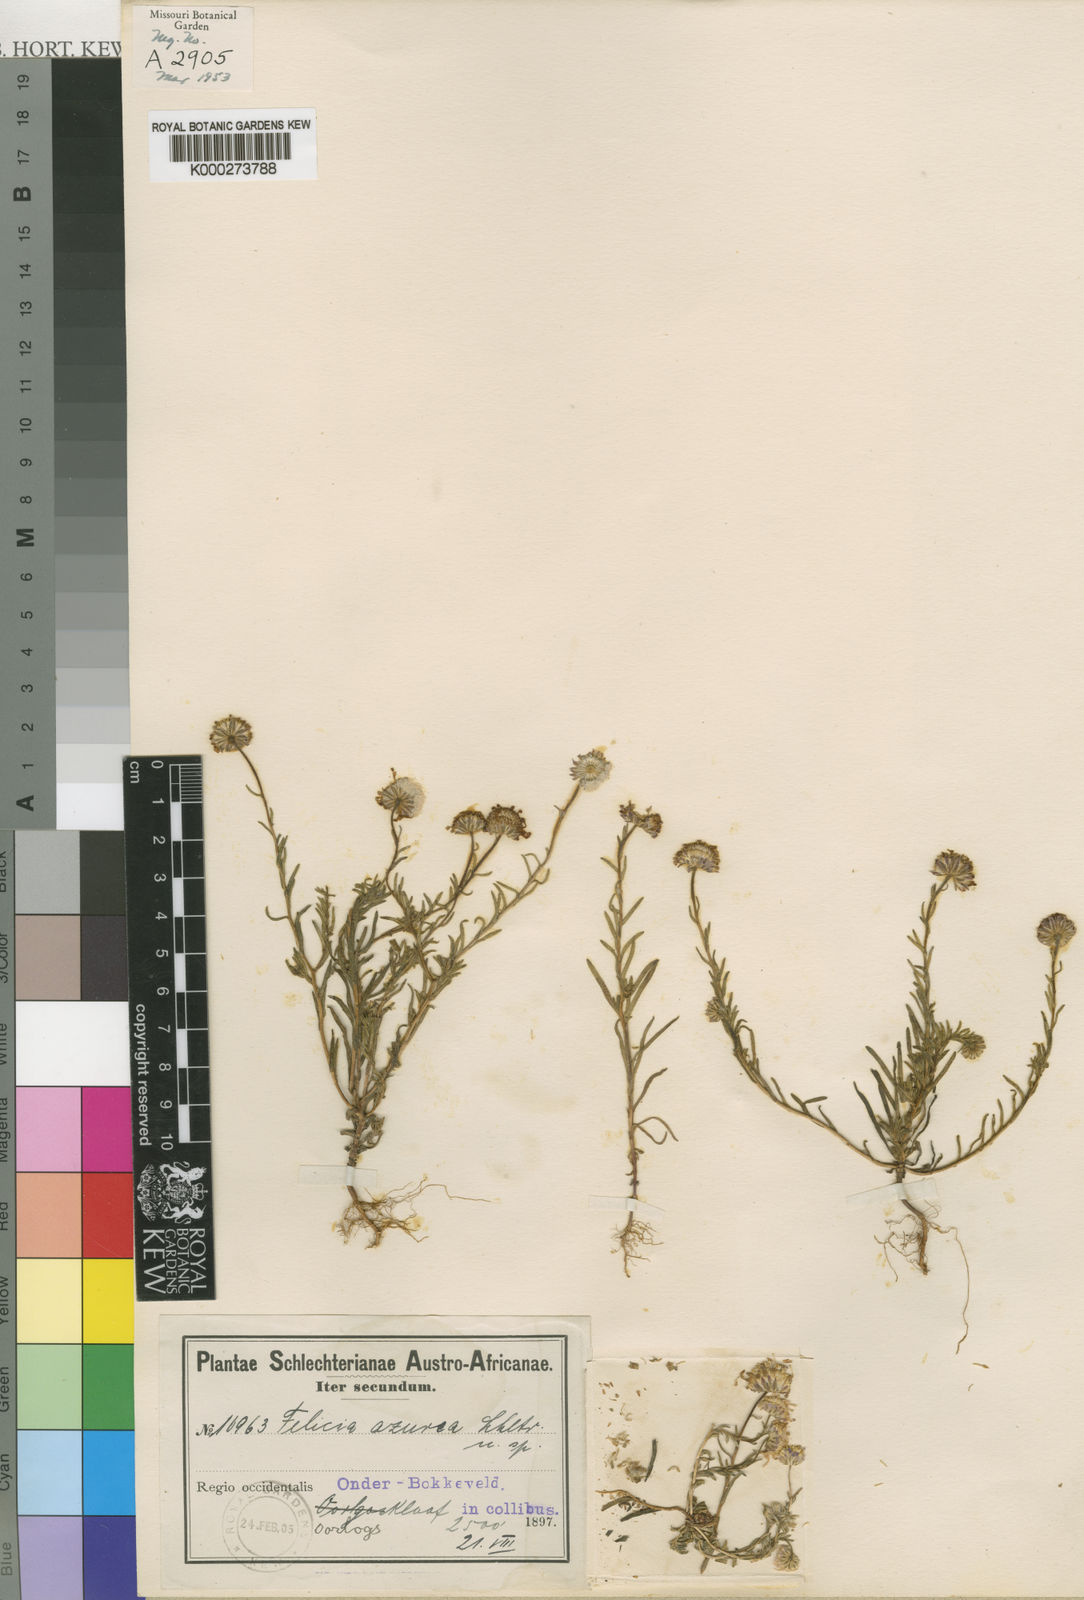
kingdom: Plantae
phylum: Tracheophyta
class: Magnoliopsida
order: Asterales
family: Asteraceae
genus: Felicia
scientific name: Felicia
